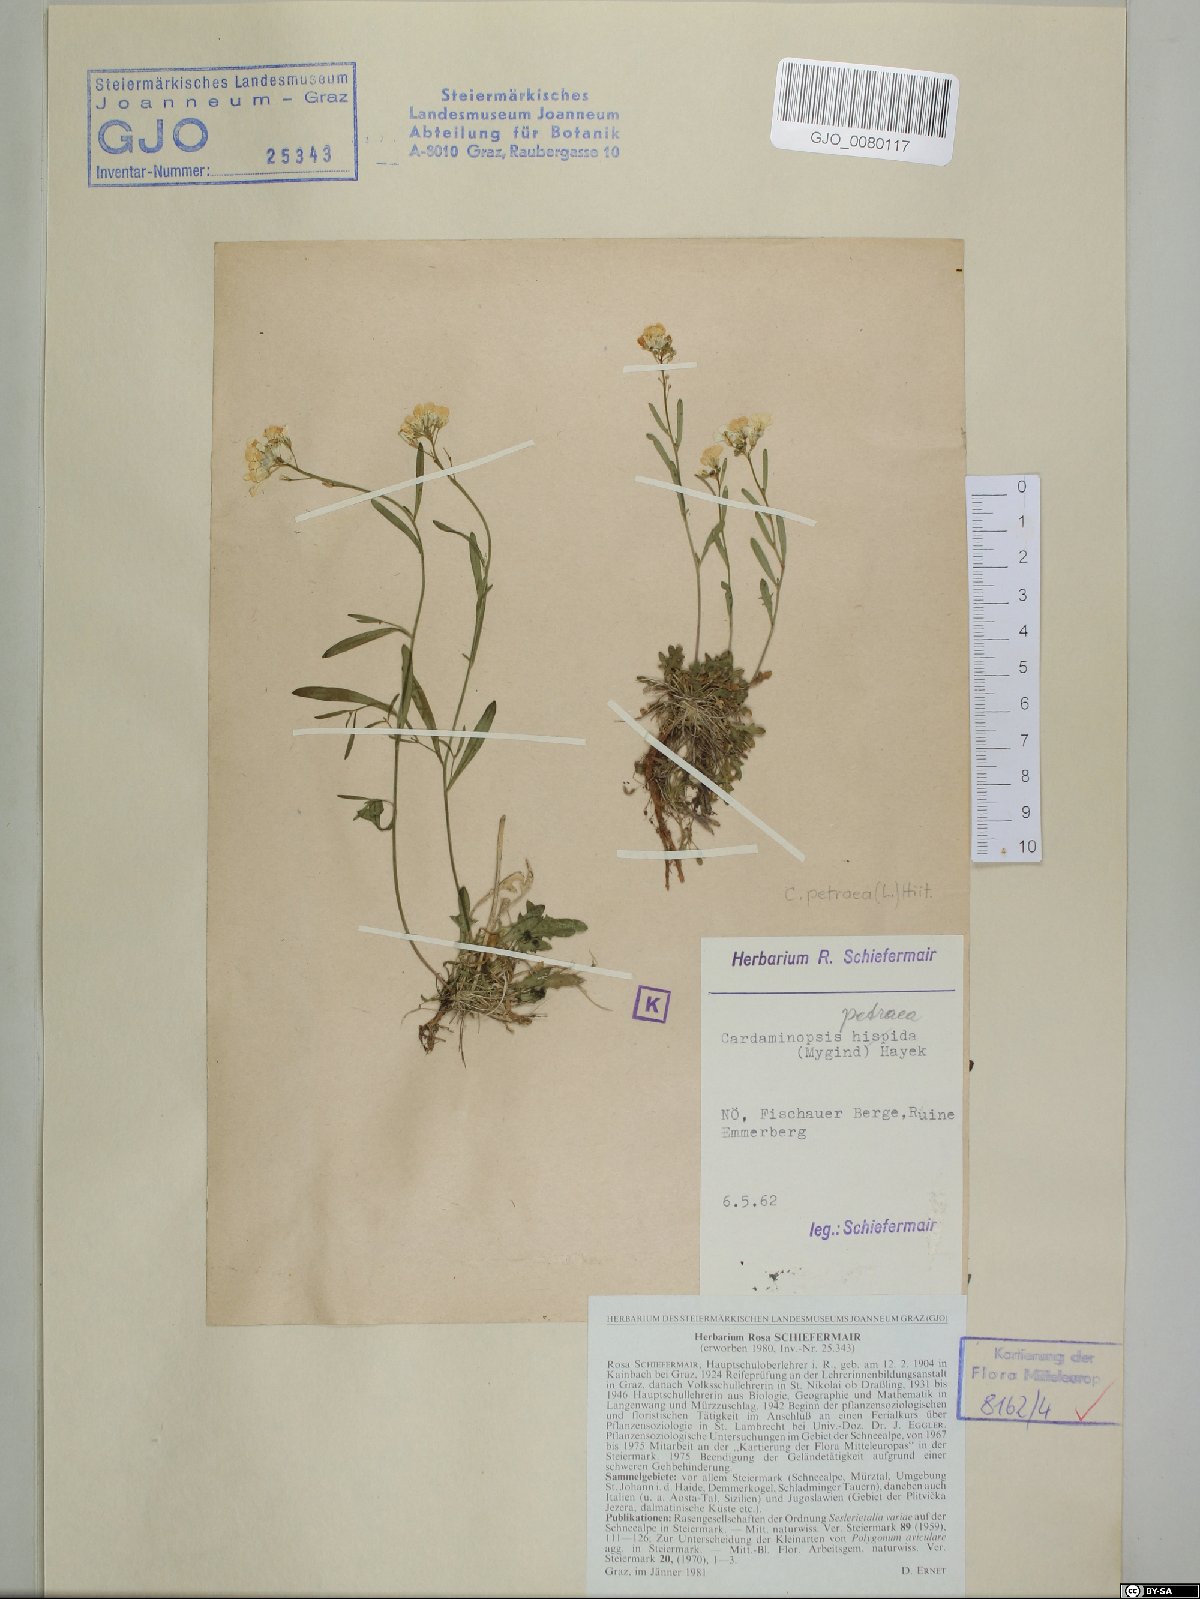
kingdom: Plantae
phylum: Tracheophyta
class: Magnoliopsida
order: Brassicales
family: Brassicaceae
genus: Arabidopsis
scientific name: Arabidopsis lyrata
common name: Lyrate rockcress
